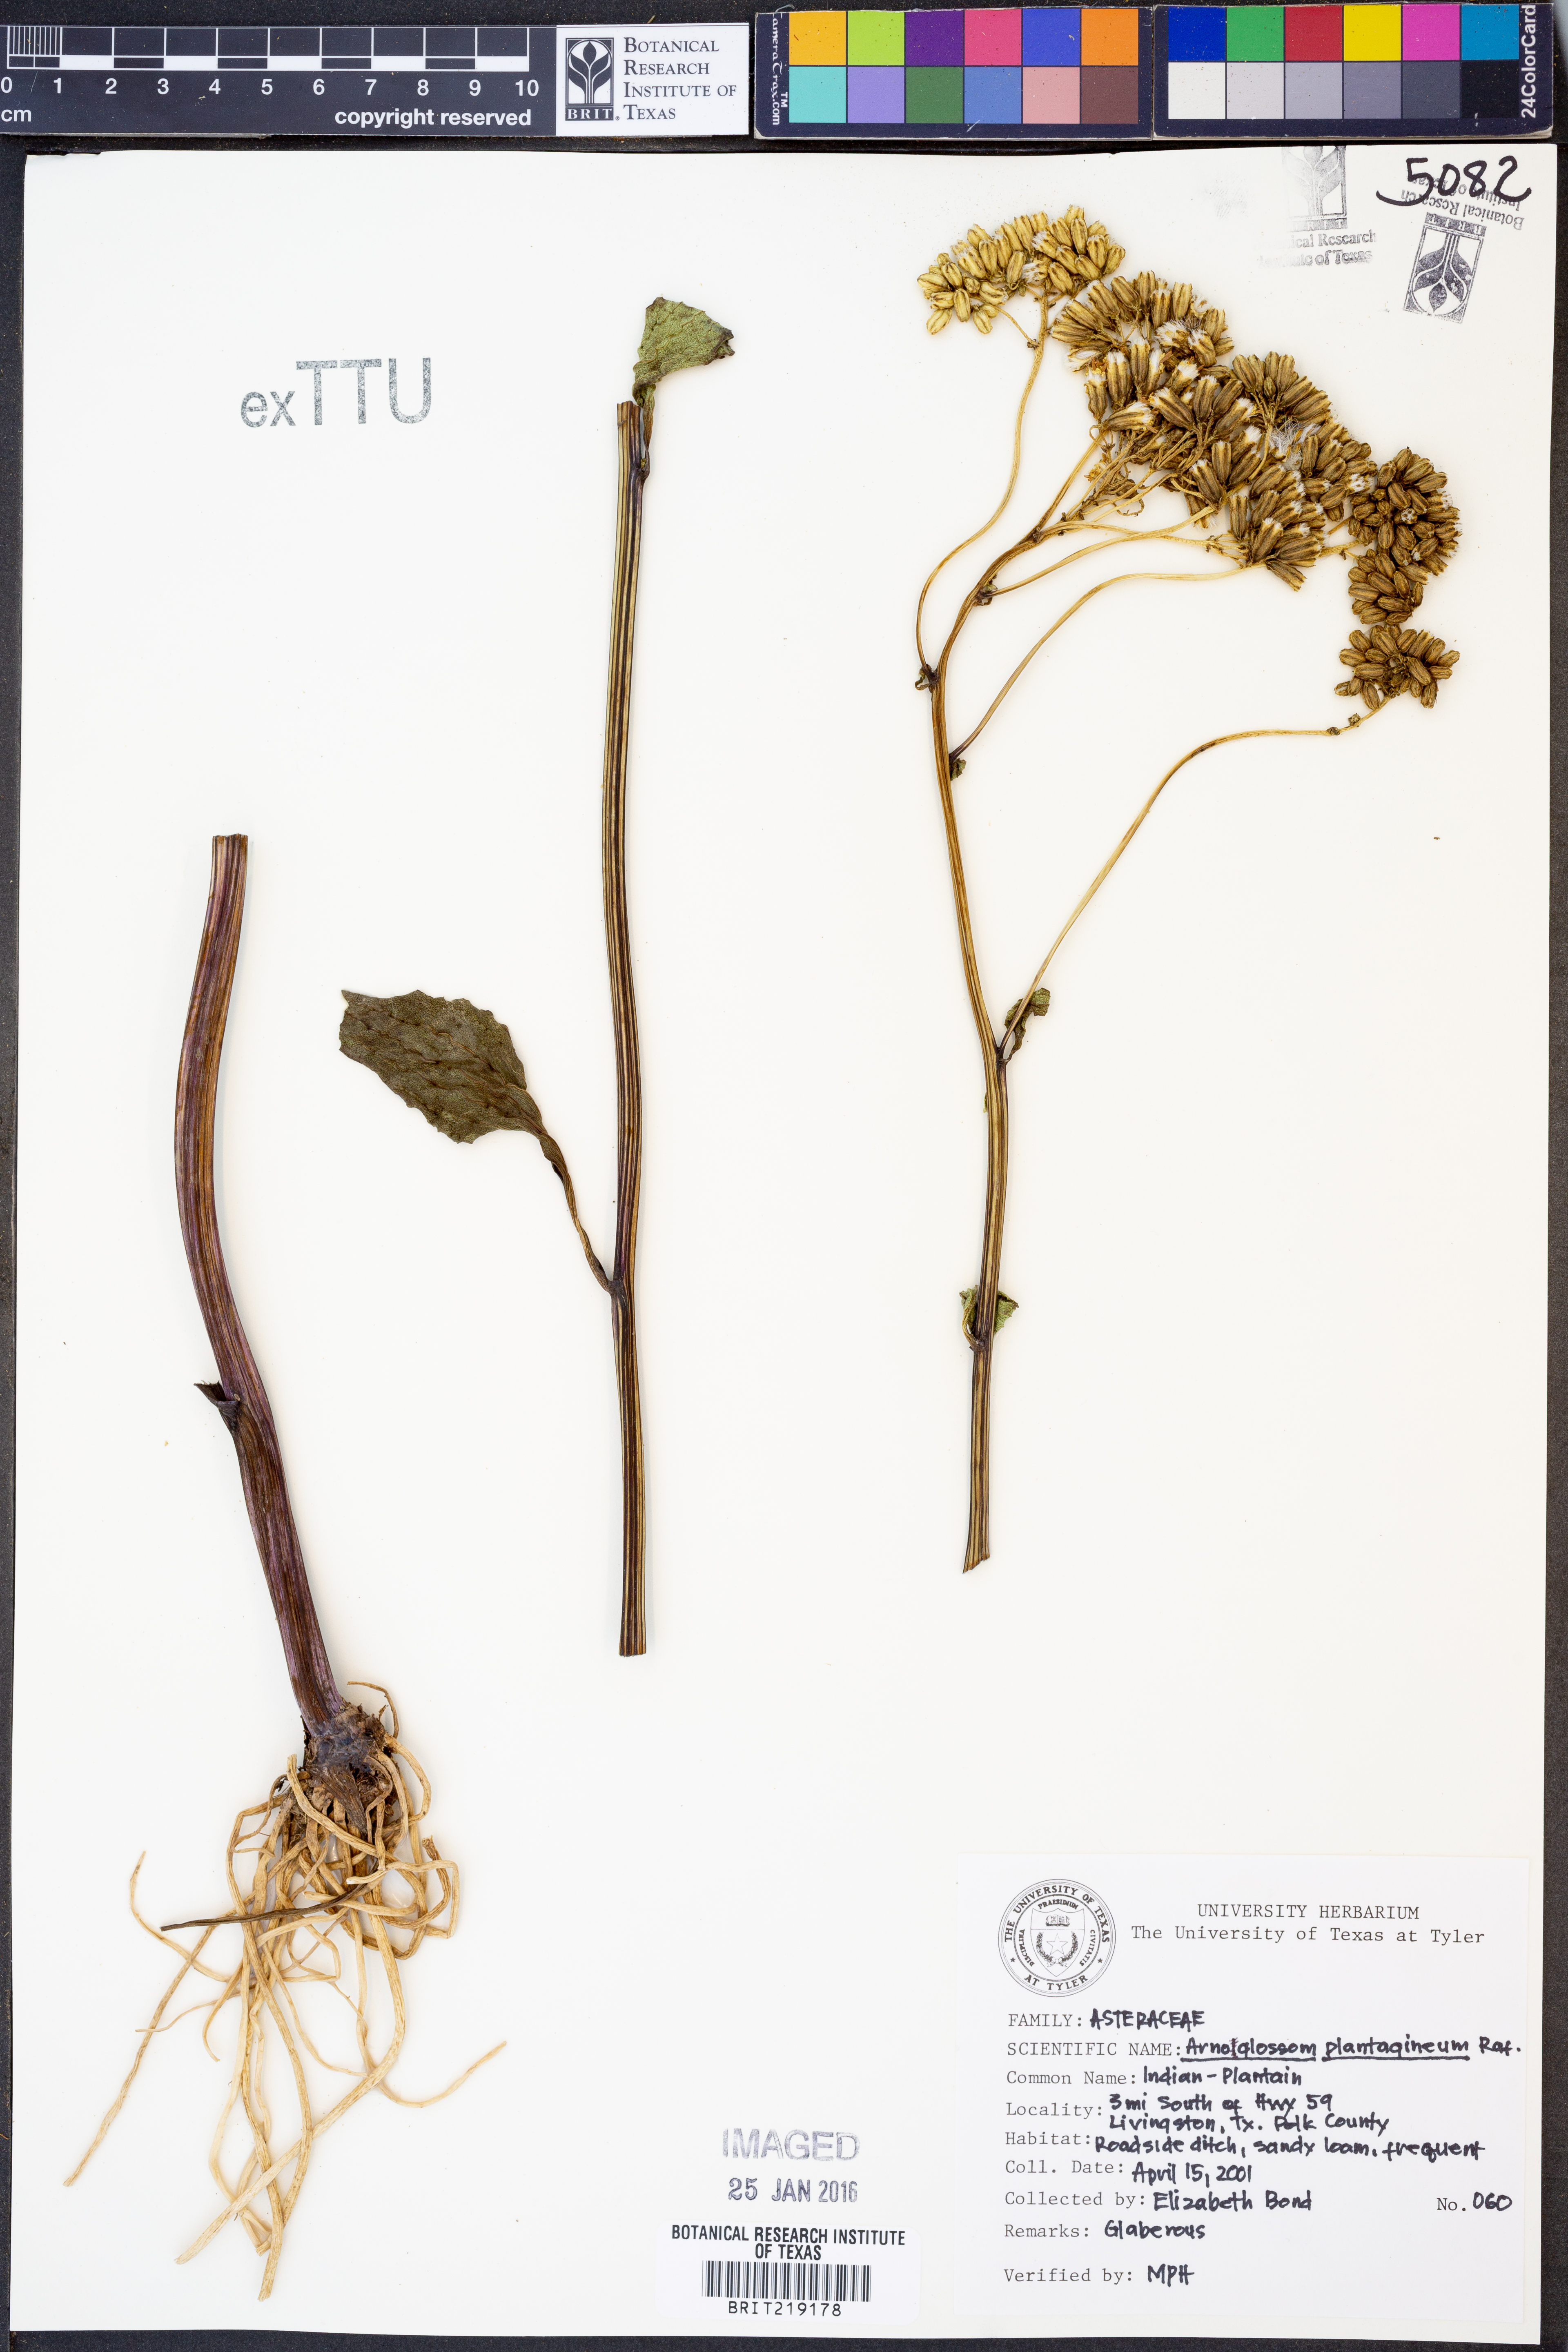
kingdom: Plantae
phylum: Tracheophyta
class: Magnoliopsida
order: Asterales
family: Asteraceae
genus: Arnoglossum
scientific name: Arnoglossum plantagineum
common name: Groove-stemmed indian-plantain
